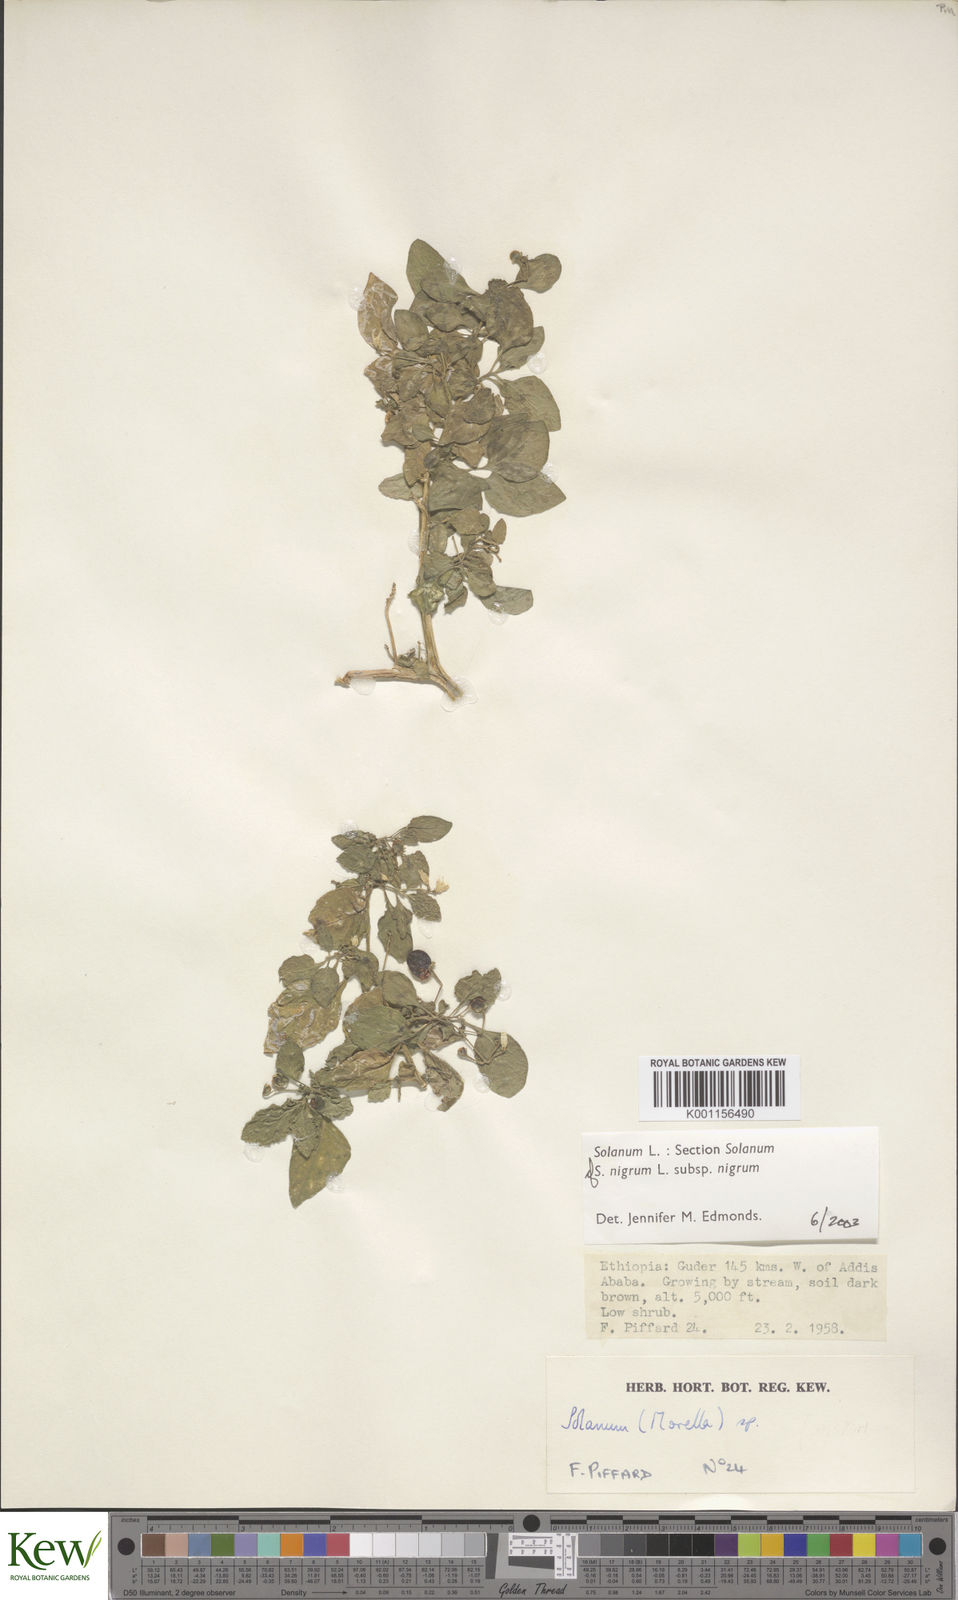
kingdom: Plantae
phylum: Tracheophyta
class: Magnoliopsida
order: Solanales
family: Solanaceae
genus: Solanum
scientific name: Solanum tarderemotum
